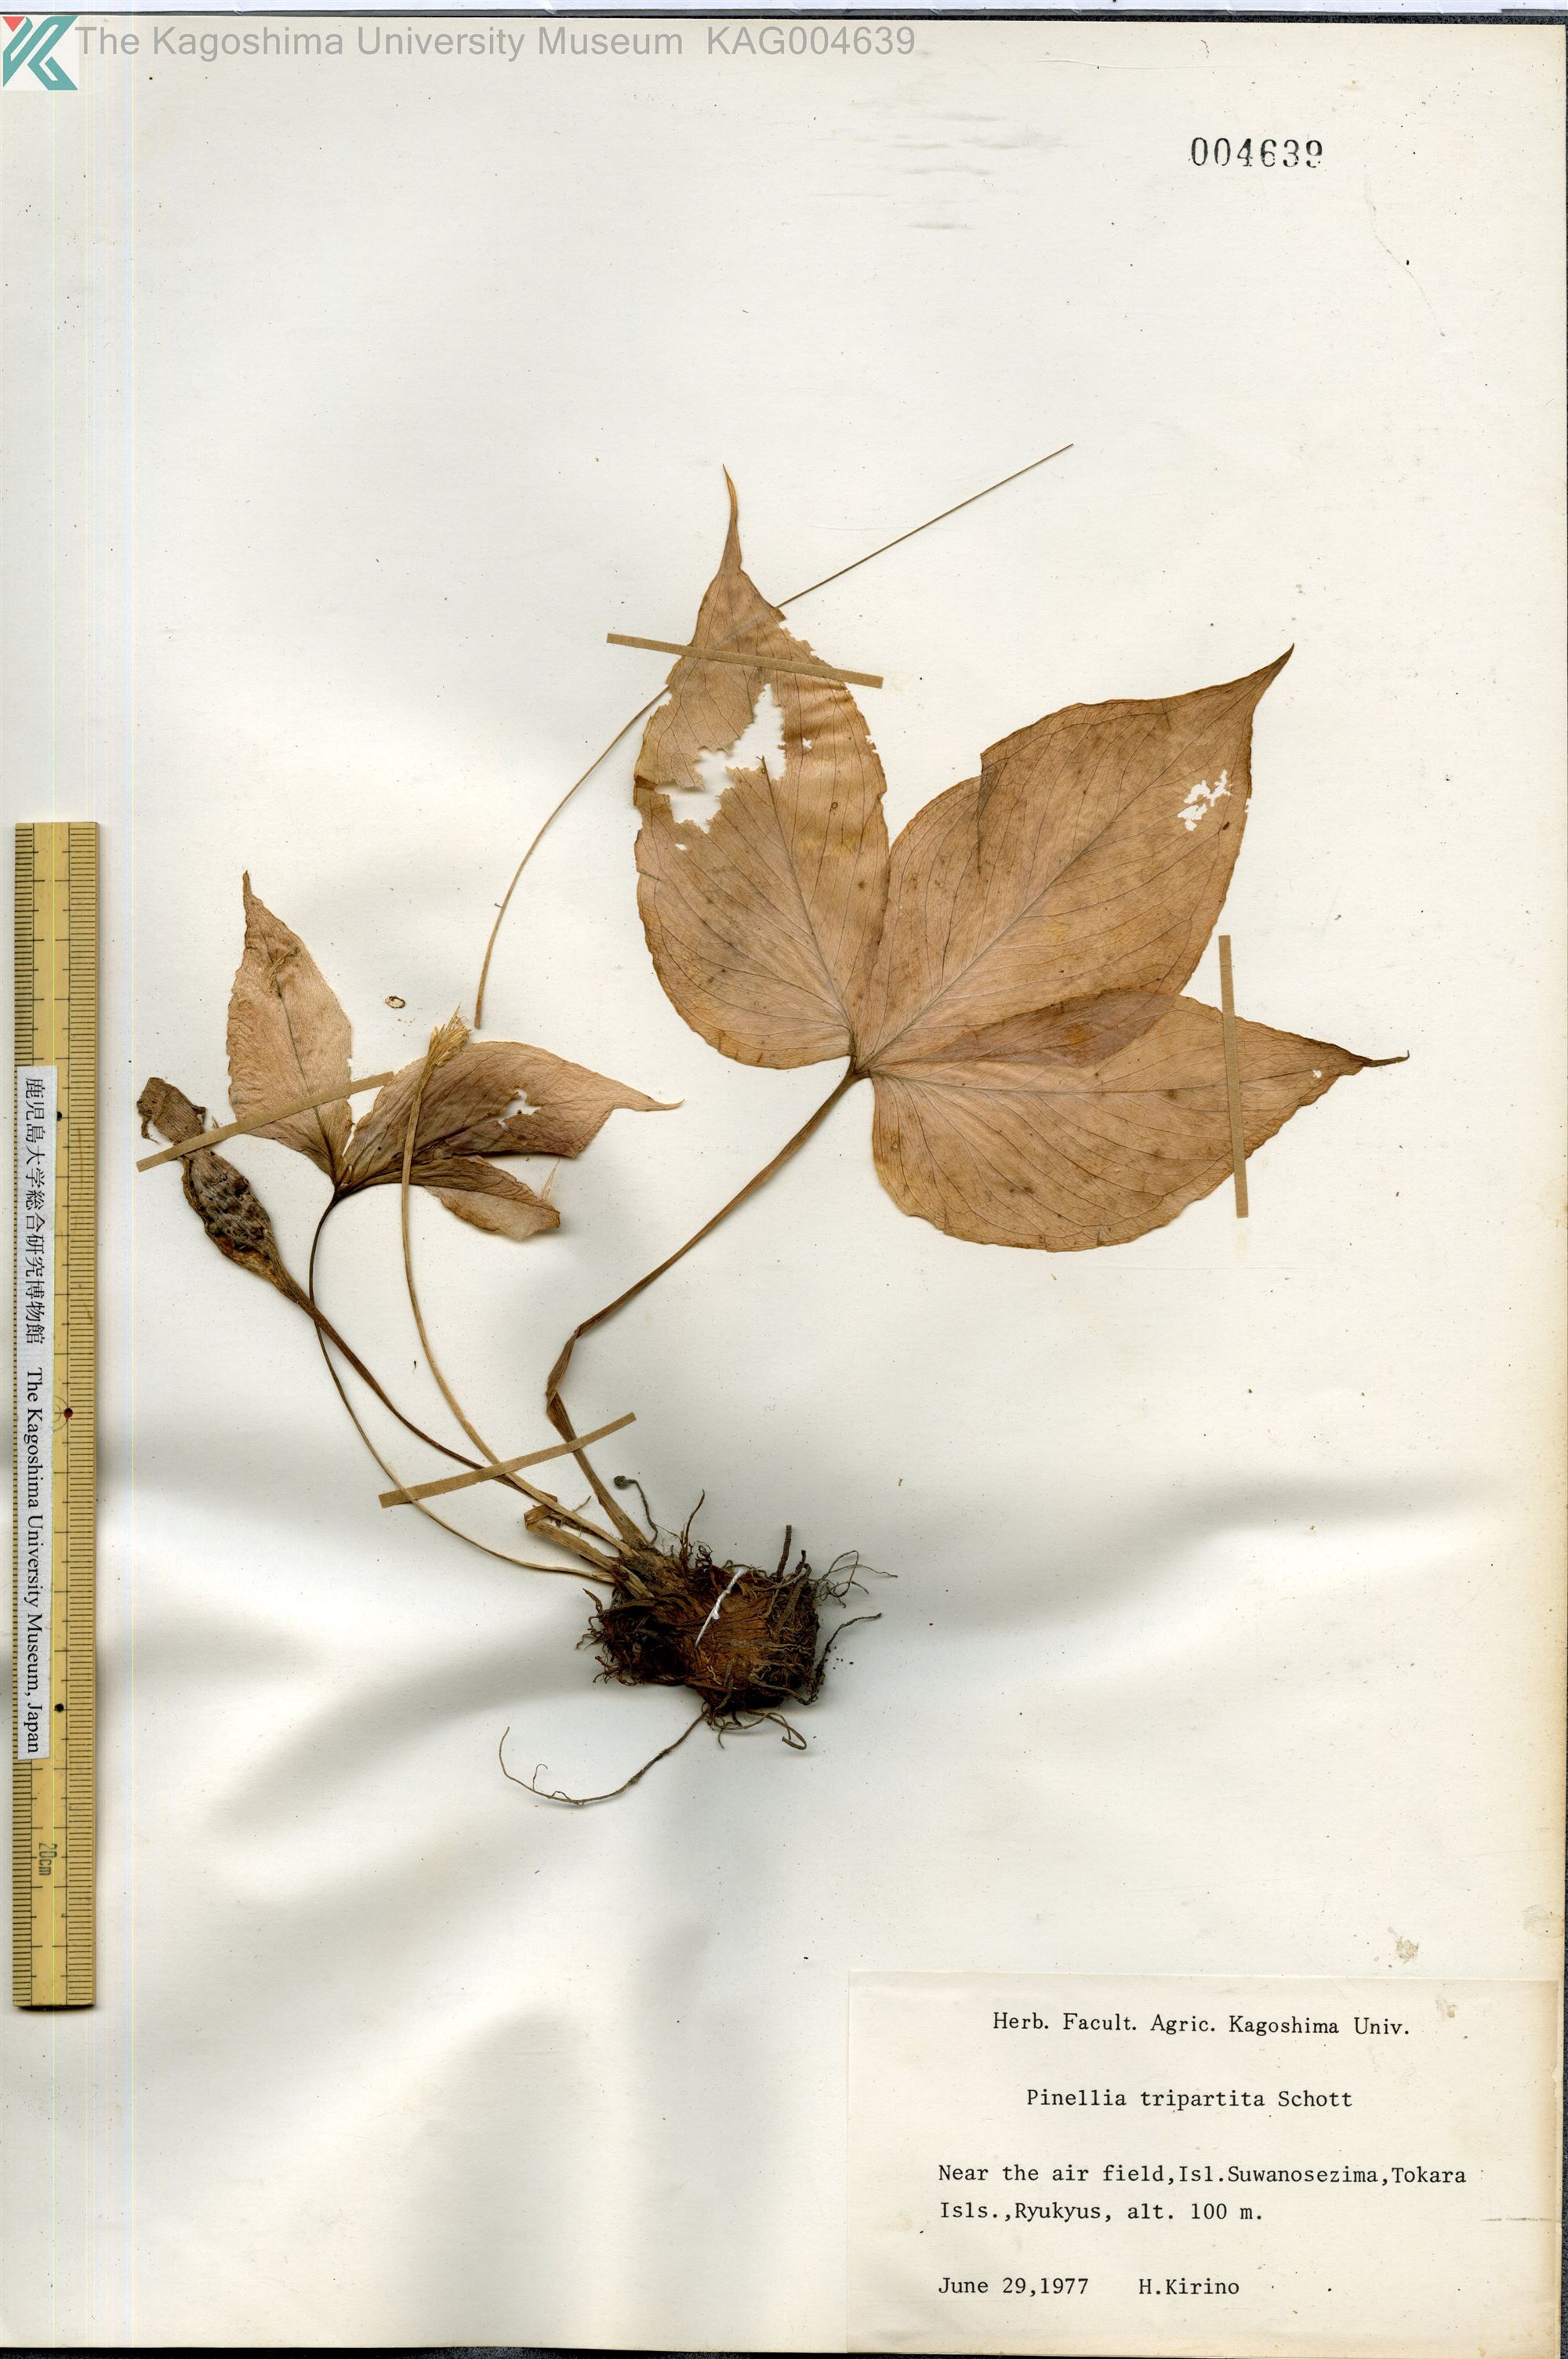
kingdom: Plantae
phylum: Tracheophyta
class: Liliopsida
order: Alismatales
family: Araceae
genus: Pinellia
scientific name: Pinellia tripartita
